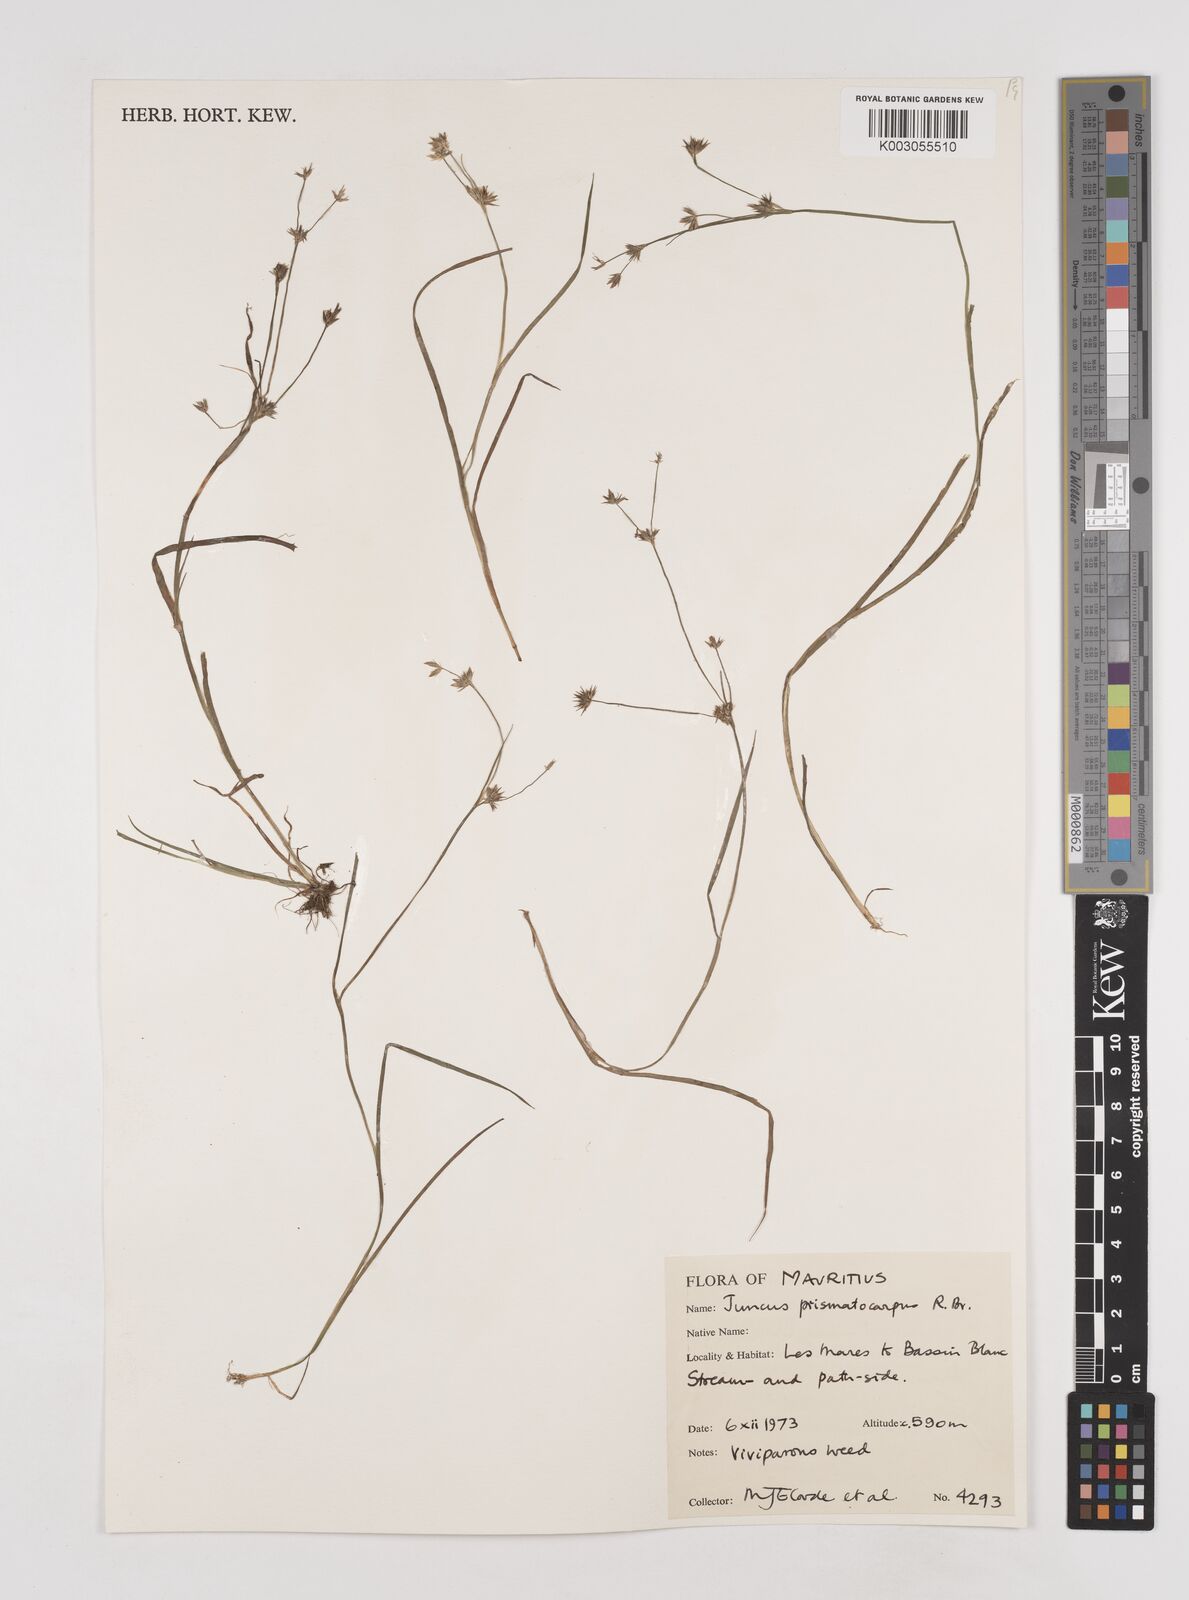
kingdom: Plantae
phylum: Tracheophyta
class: Liliopsida
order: Poales
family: Juncaceae
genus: Juncus
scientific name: Juncus prismatocarpus
